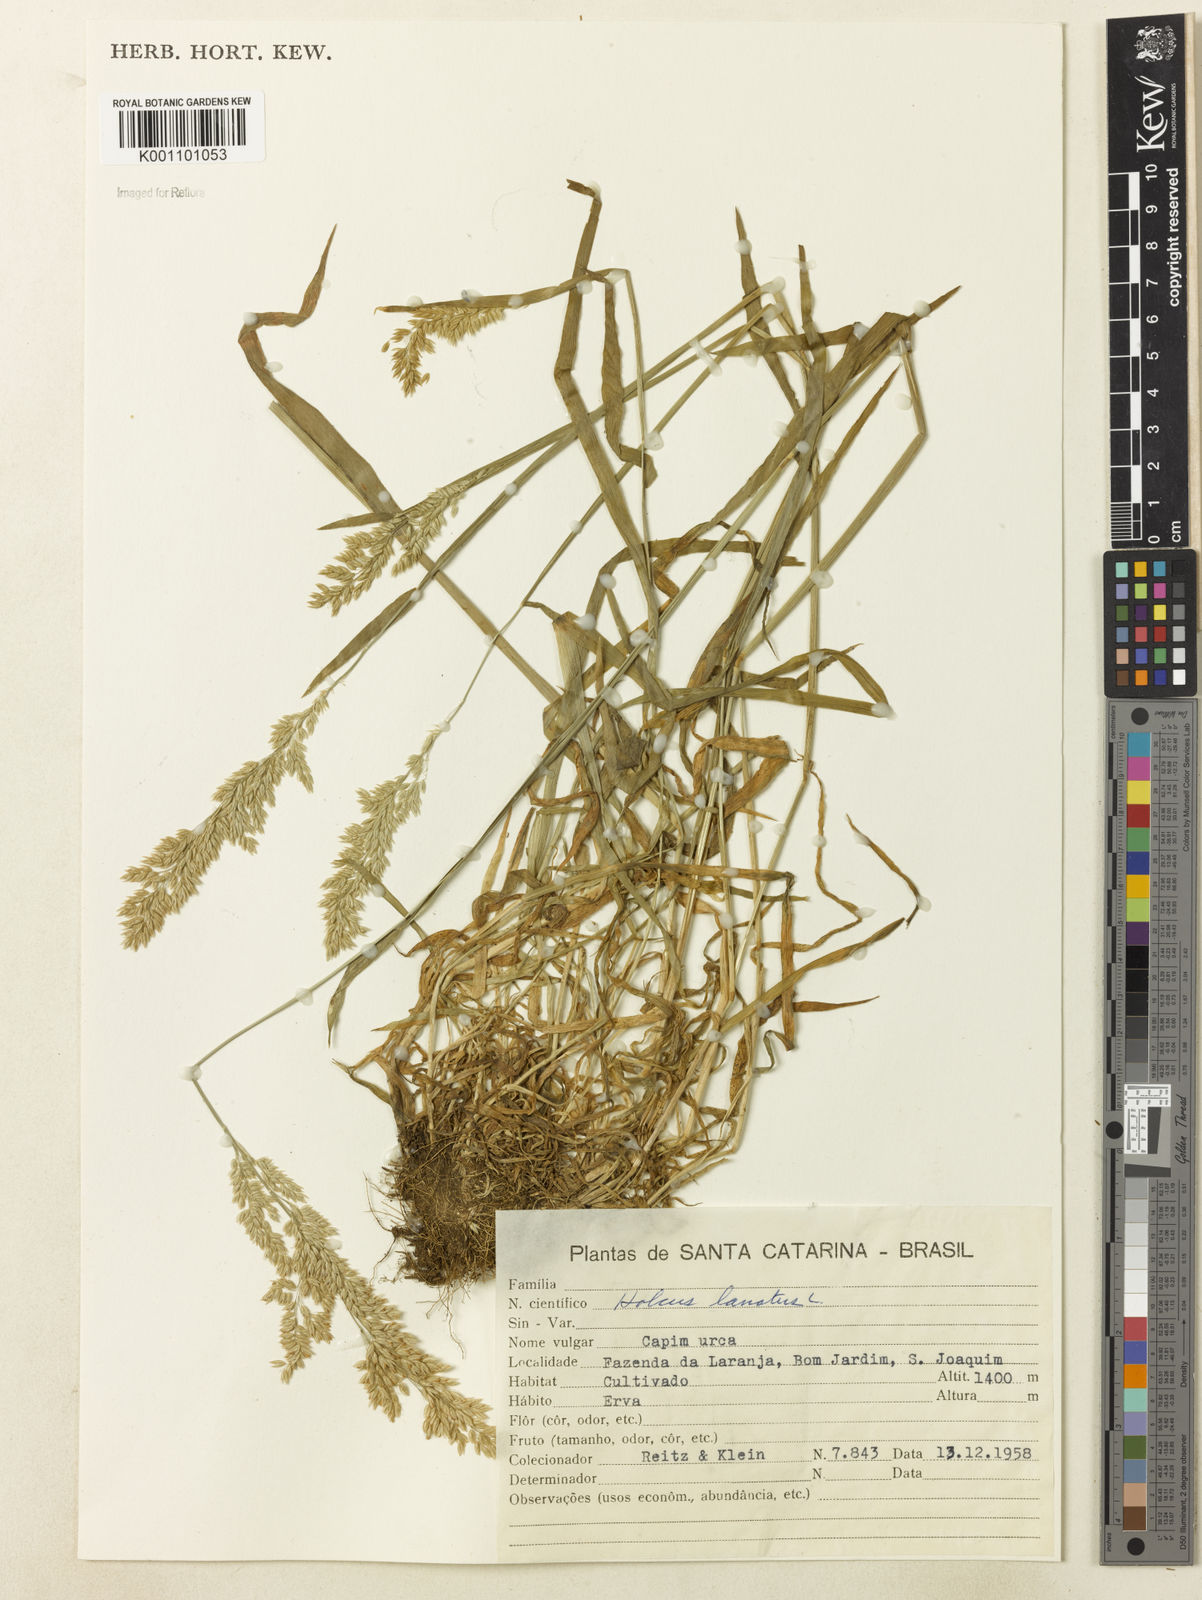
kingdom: Plantae
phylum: Tracheophyta
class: Liliopsida
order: Poales
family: Poaceae
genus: Holcus
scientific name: Holcus lanatus
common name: Yorkshire-fog
